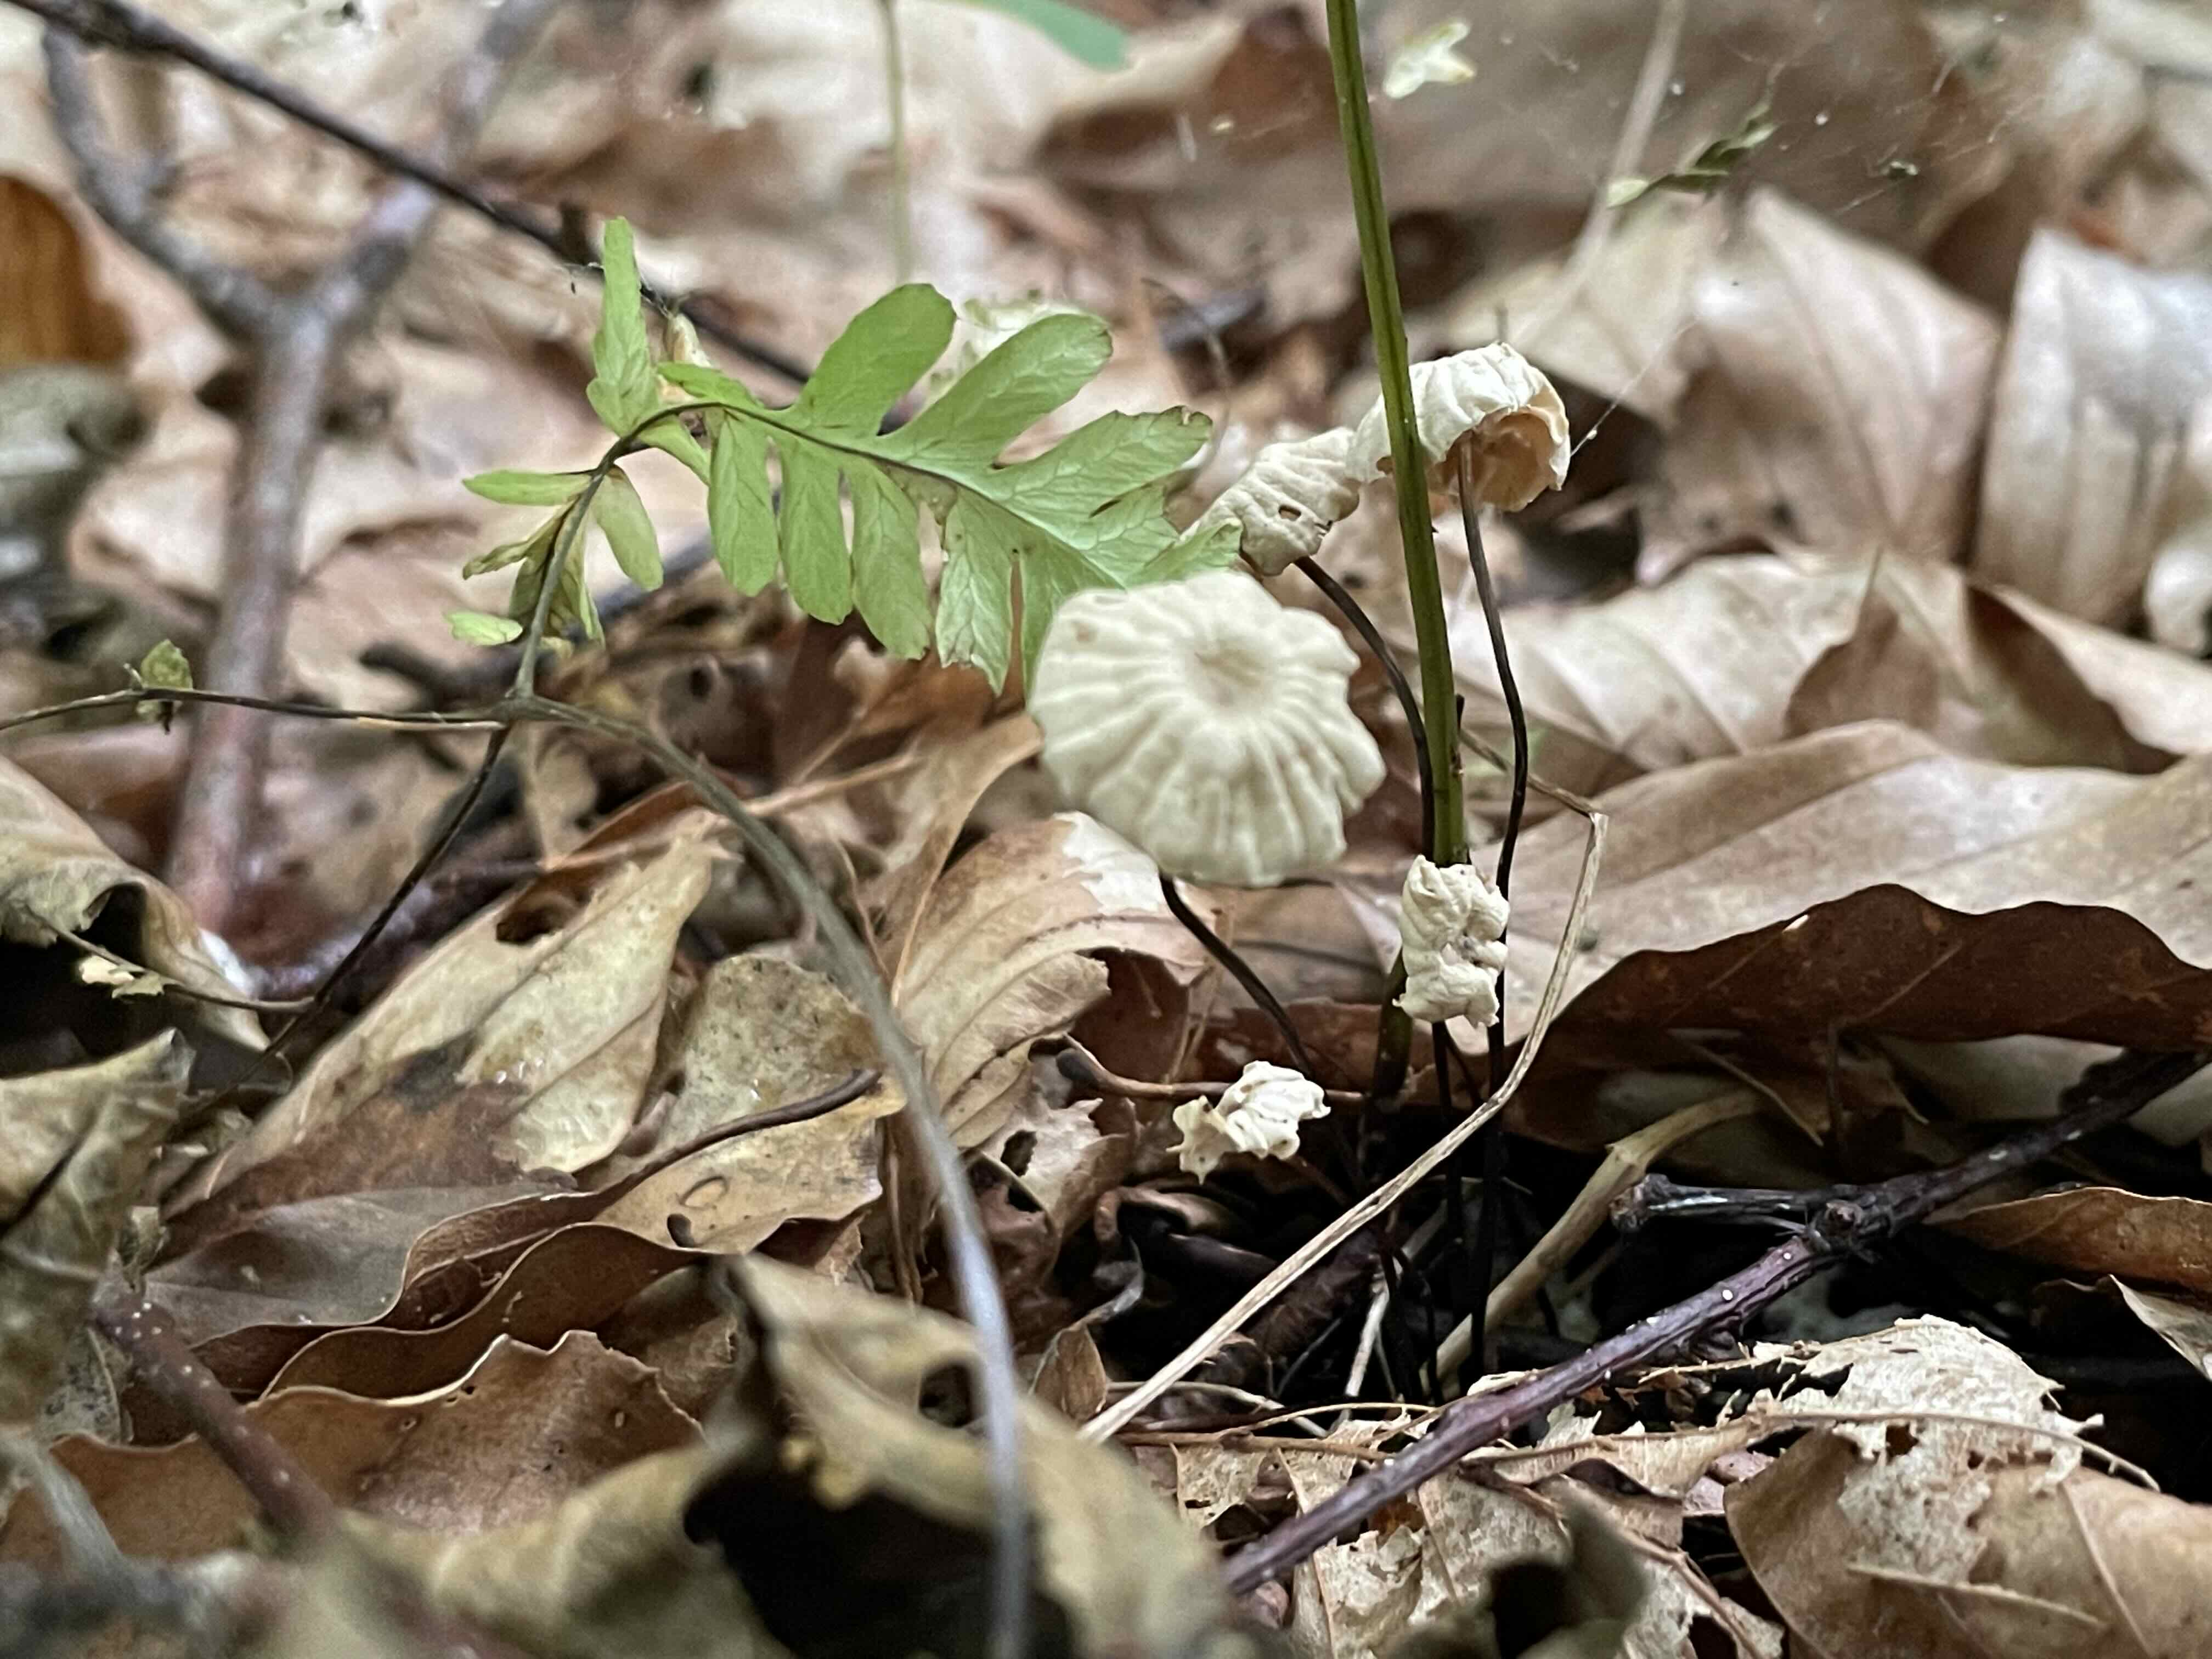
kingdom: Fungi
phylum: Basidiomycota
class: Agaricomycetes
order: Agaricales
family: Marasmiaceae
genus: Marasmius
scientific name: Marasmius rotula
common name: hjul-bruskhat
